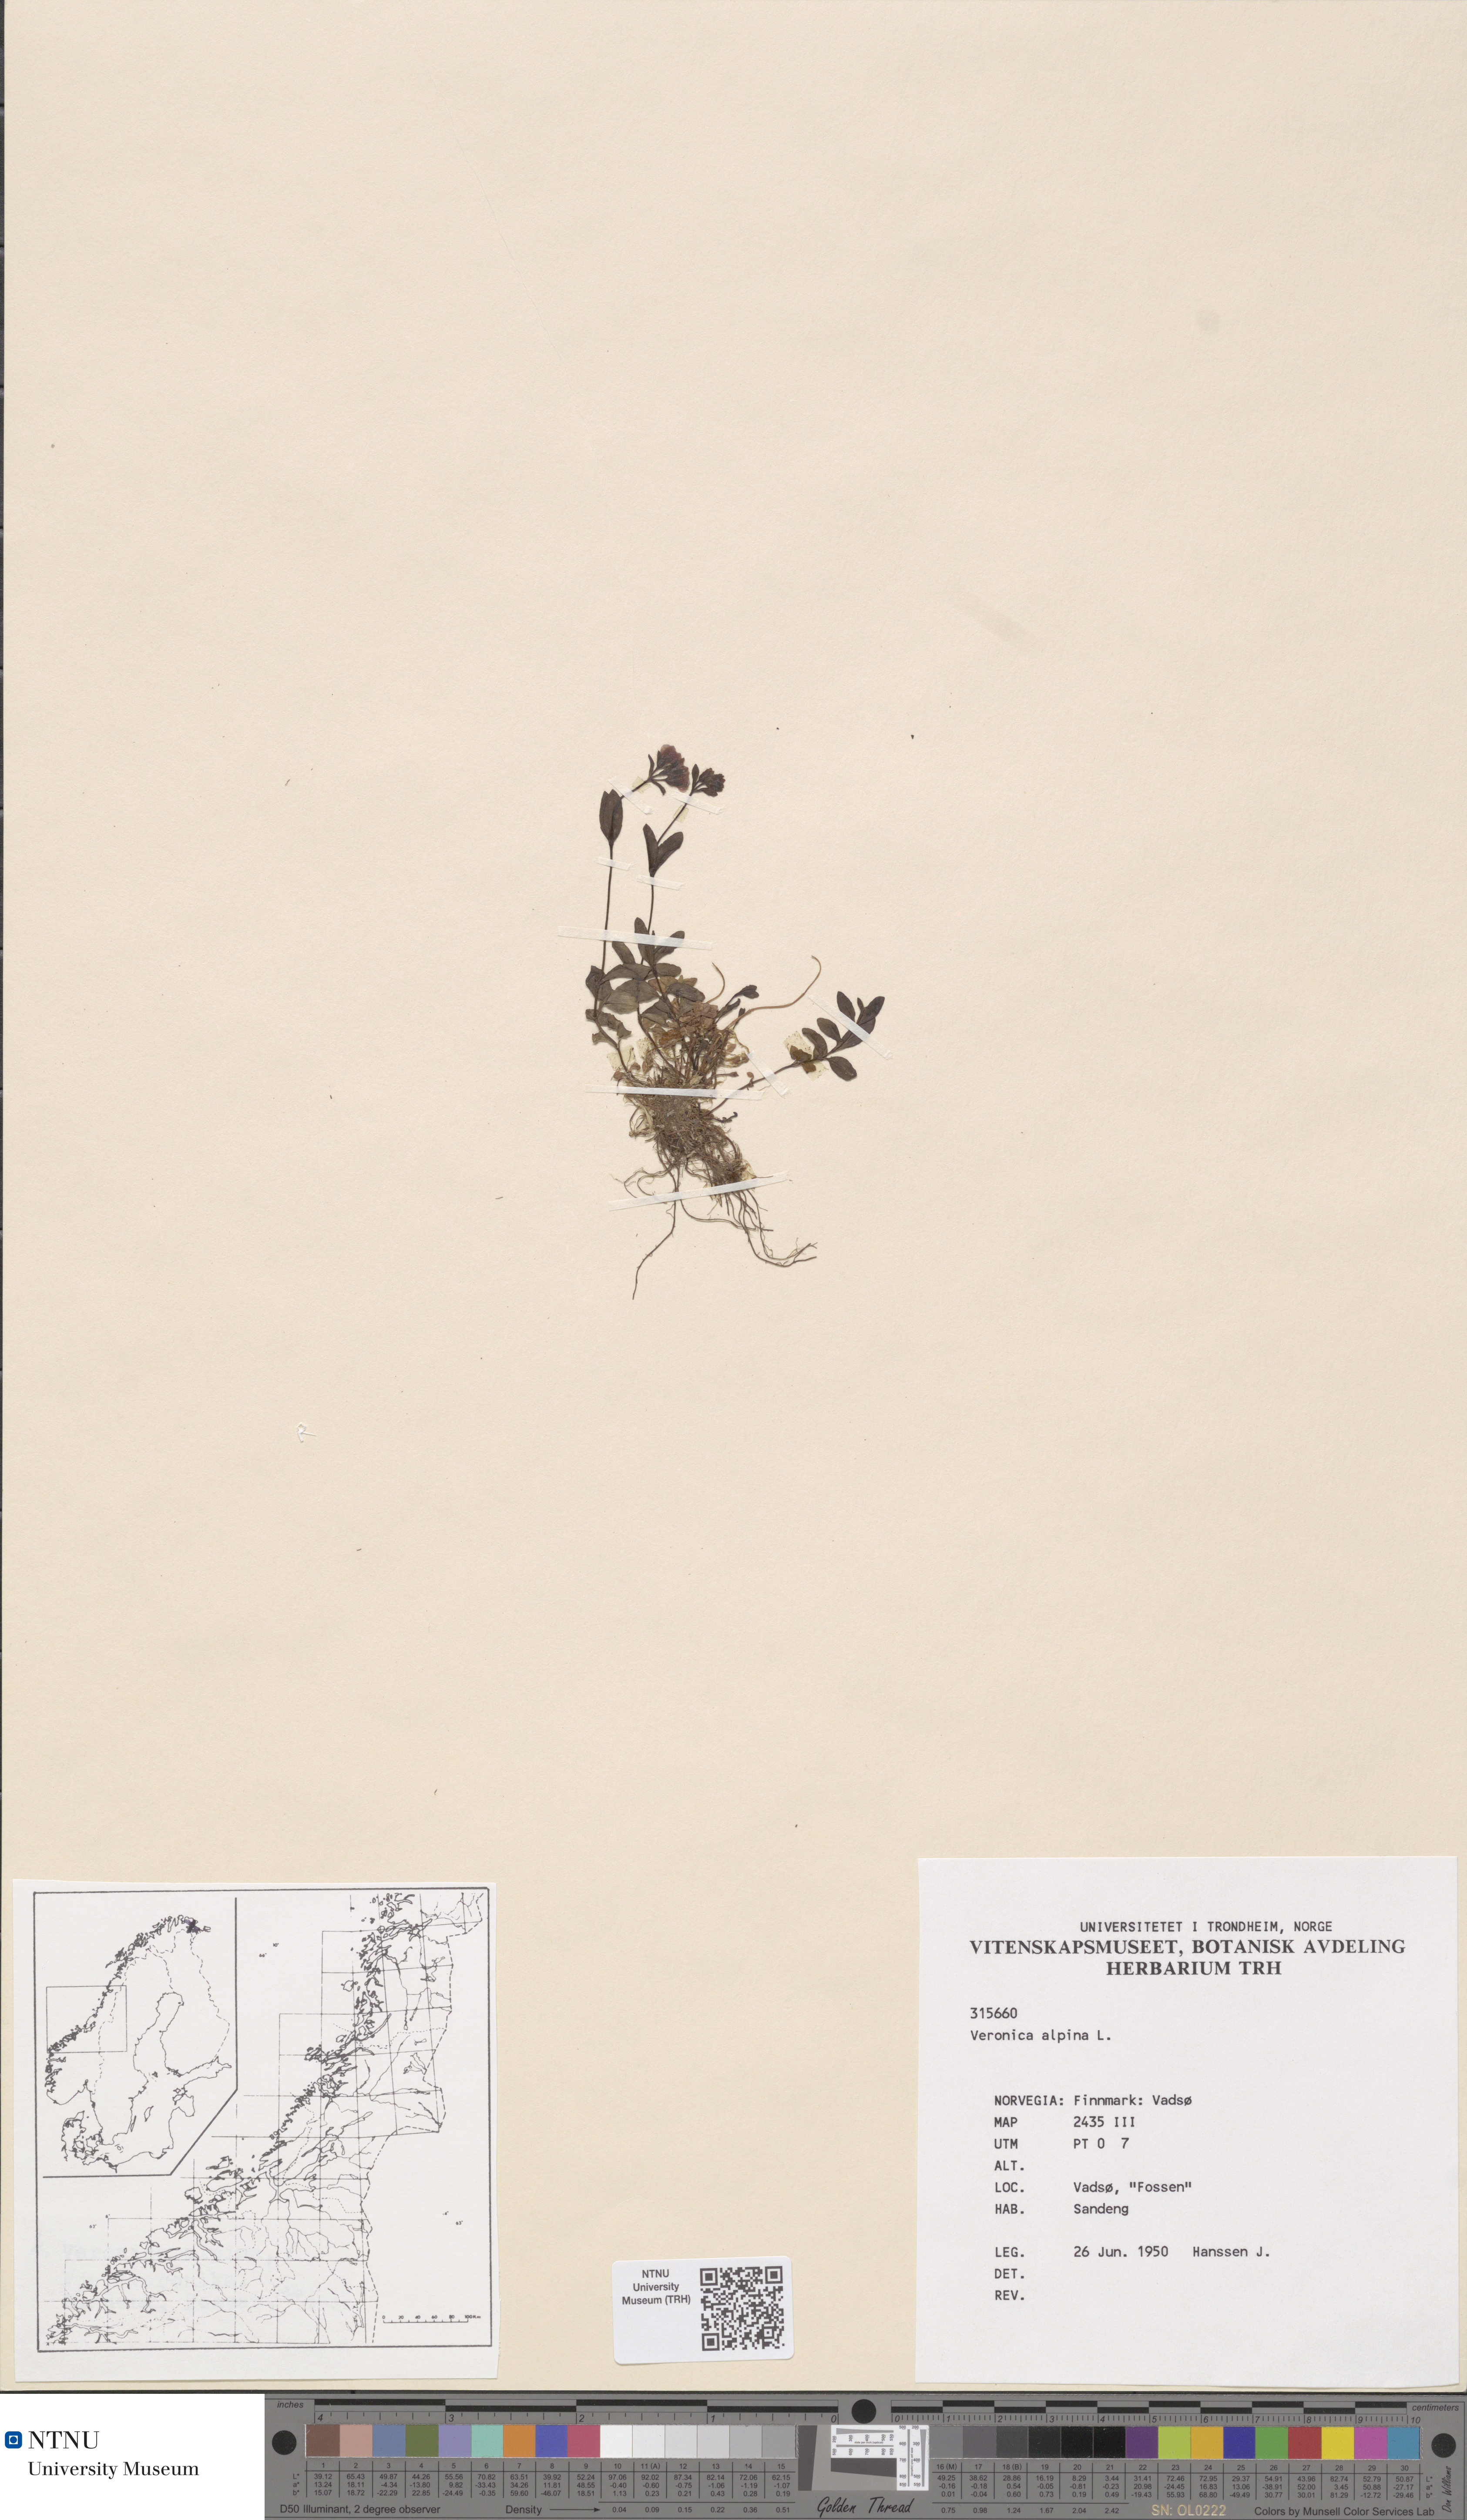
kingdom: Plantae
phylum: Tracheophyta
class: Magnoliopsida
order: Lamiales
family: Plantaginaceae
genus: Veronica
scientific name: Veronica alpina
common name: Alpine speedwell
